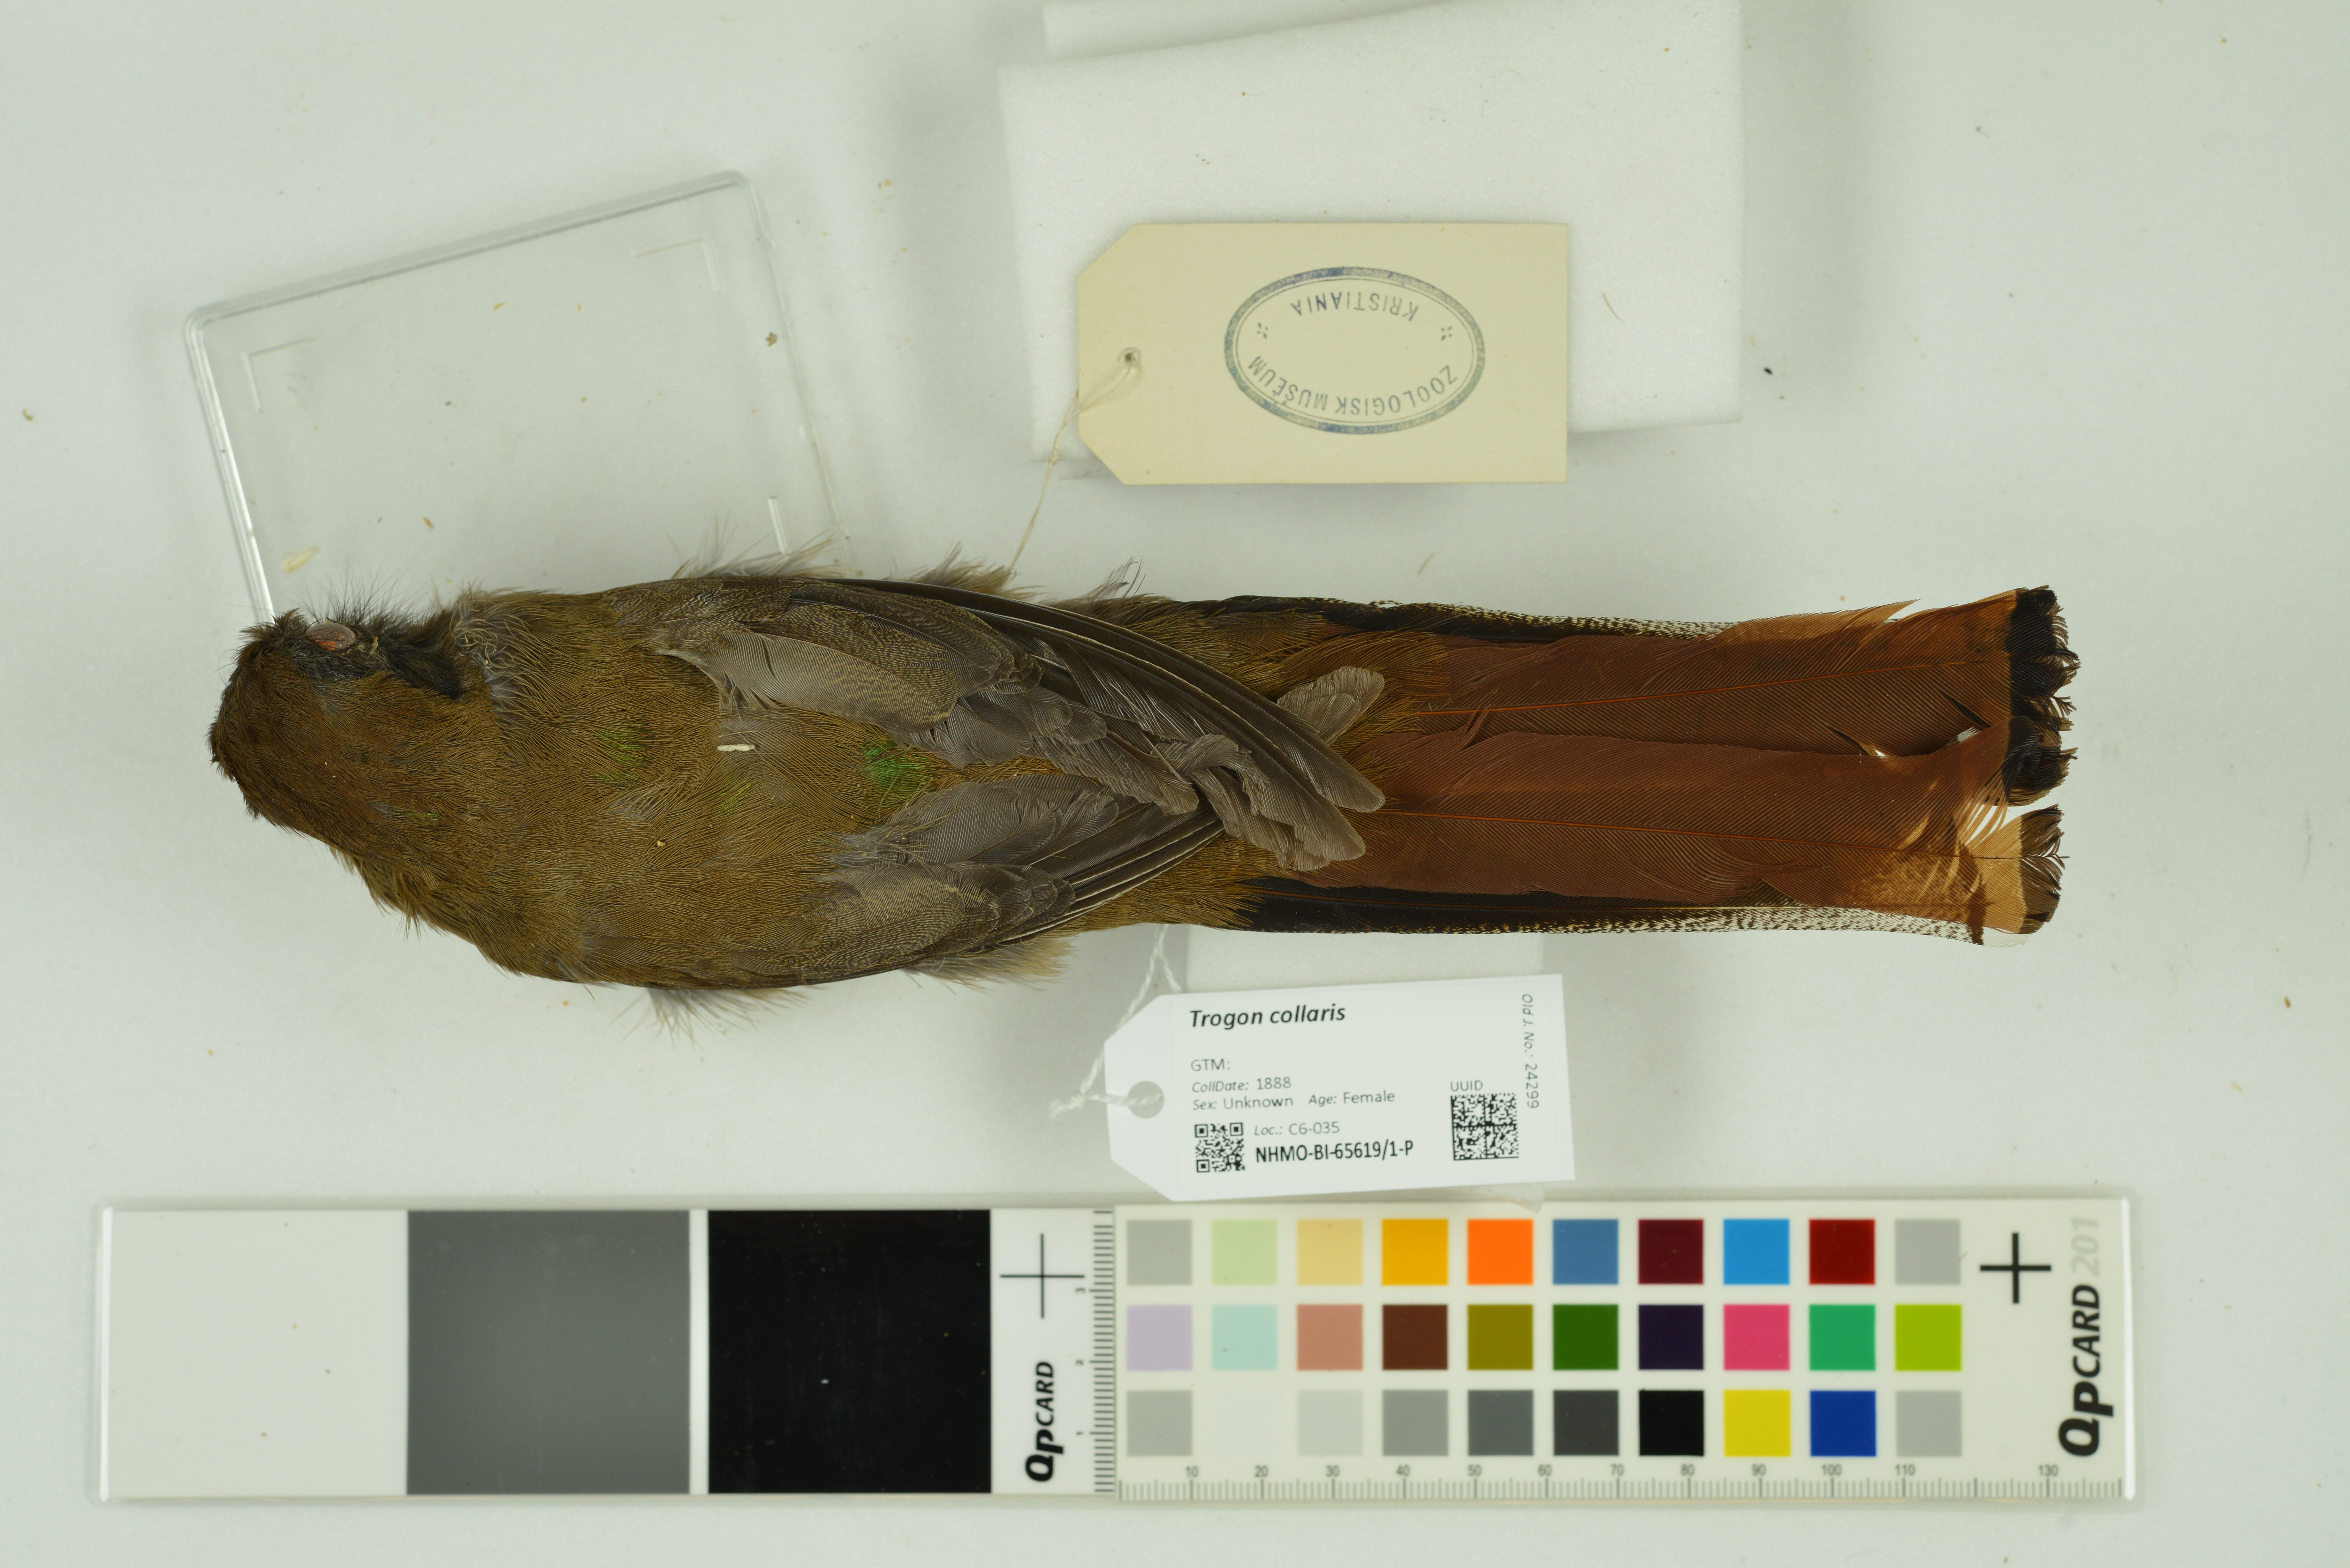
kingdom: Animalia
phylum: Chordata
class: Aves
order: Trogoniformes
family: Trogonidae
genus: Trogon
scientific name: Trogon collaris
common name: Collared trogon
